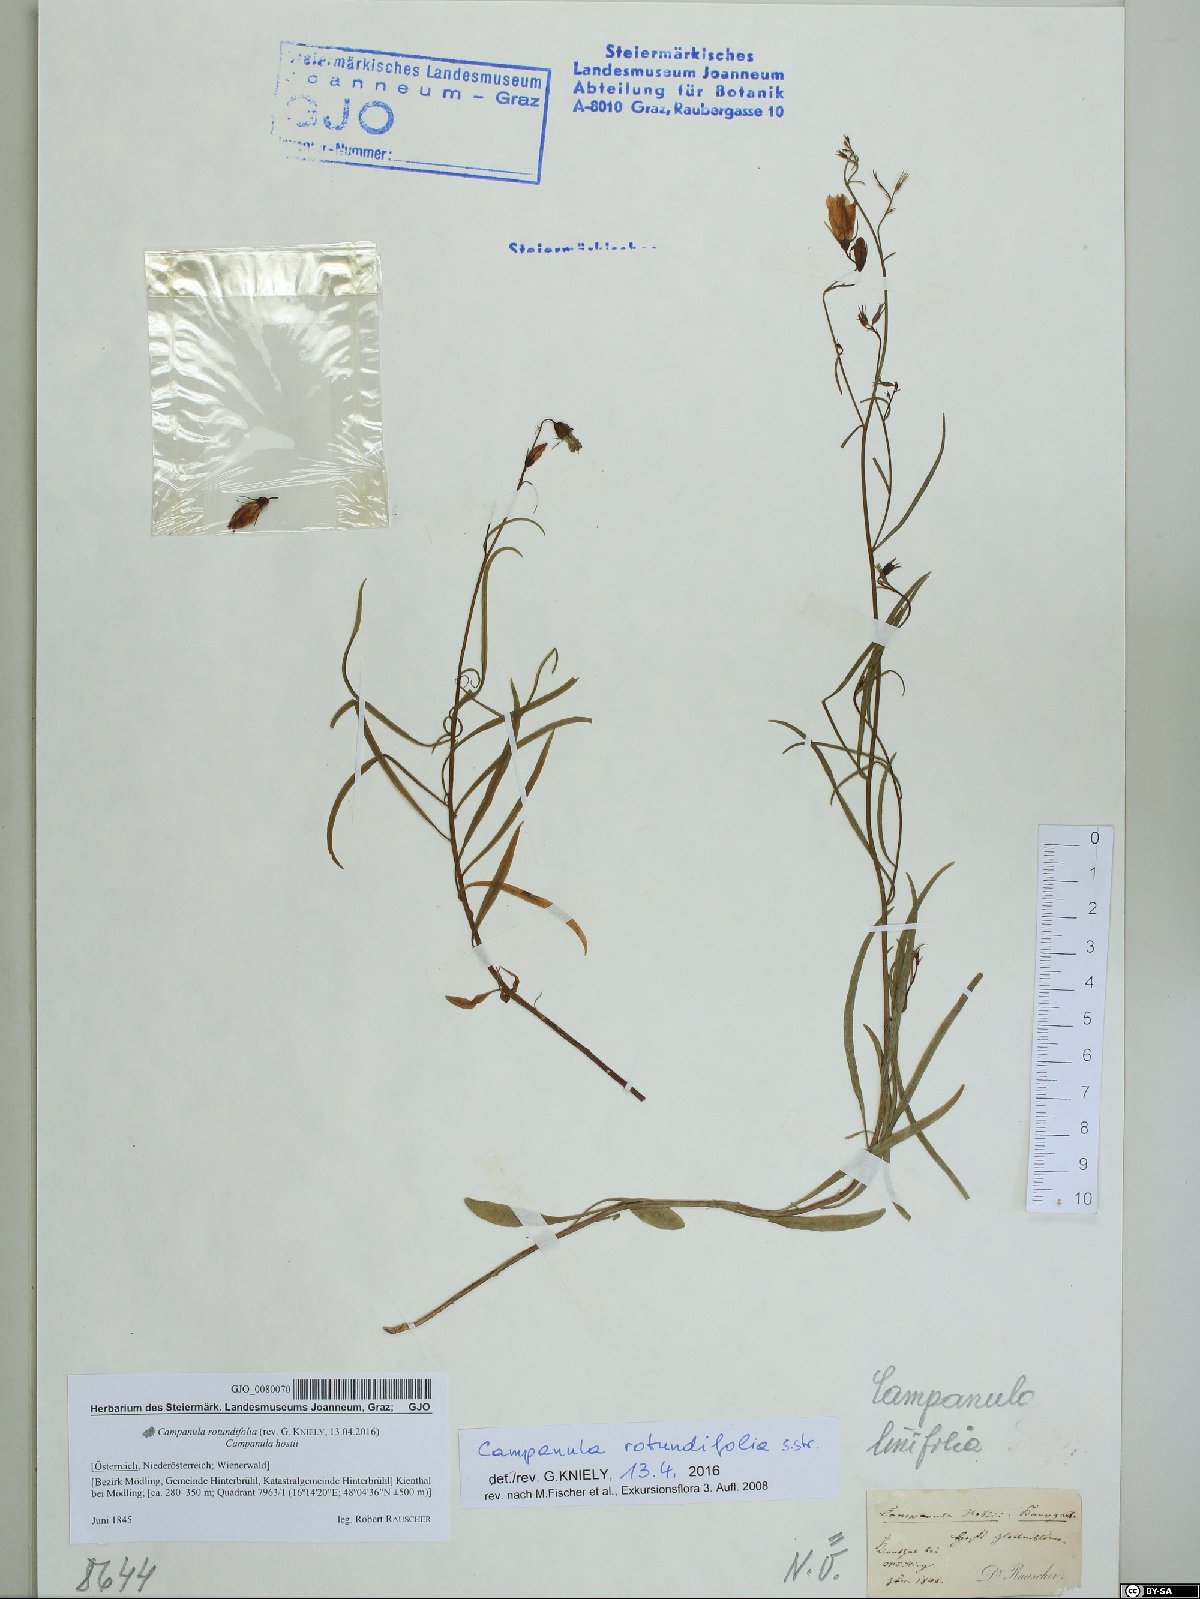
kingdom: Plantae
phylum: Tracheophyta
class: Magnoliopsida
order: Asterales
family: Campanulaceae
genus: Campanula
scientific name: Campanula rotundifolia
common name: Harebell
